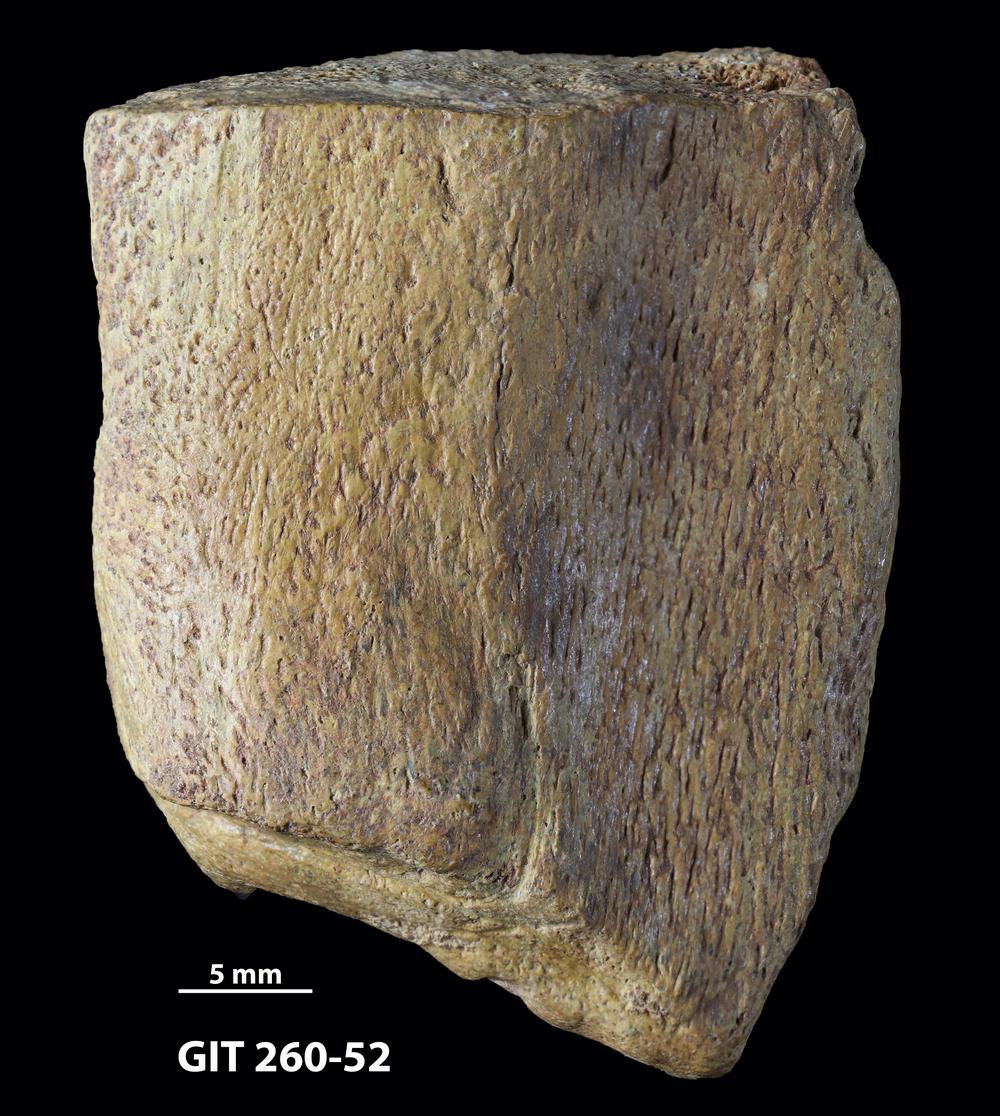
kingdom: Animalia
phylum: Chordata
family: Homostiidae
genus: Homostius
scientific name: Homostius
